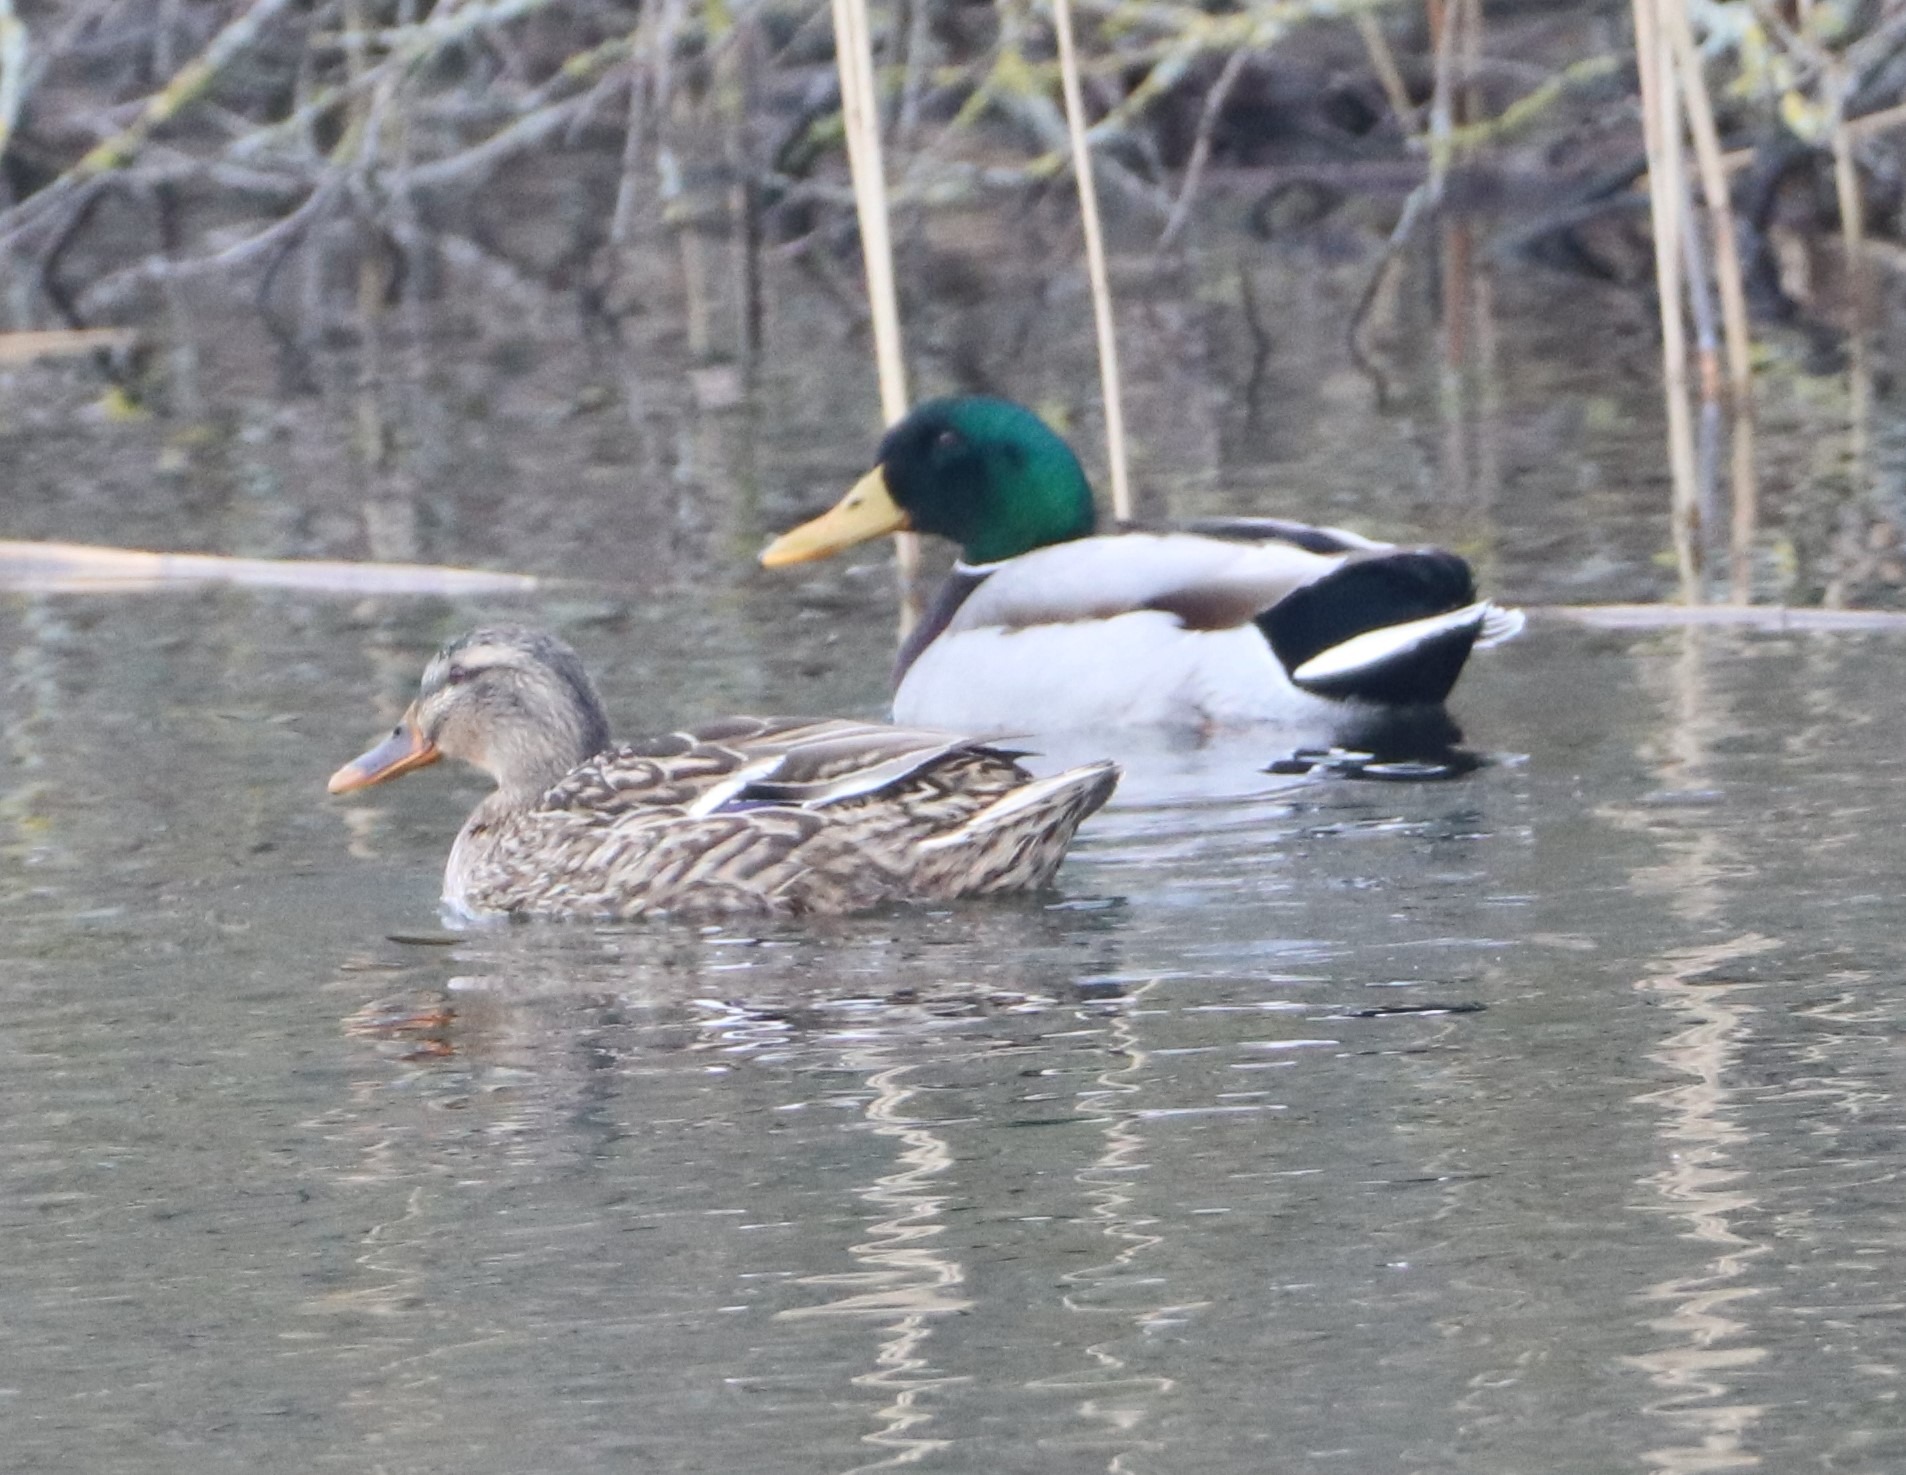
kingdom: Animalia
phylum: Chordata
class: Aves
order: Anseriformes
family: Anatidae
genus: Anas
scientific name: Anas platyrhynchos
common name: Gråand
